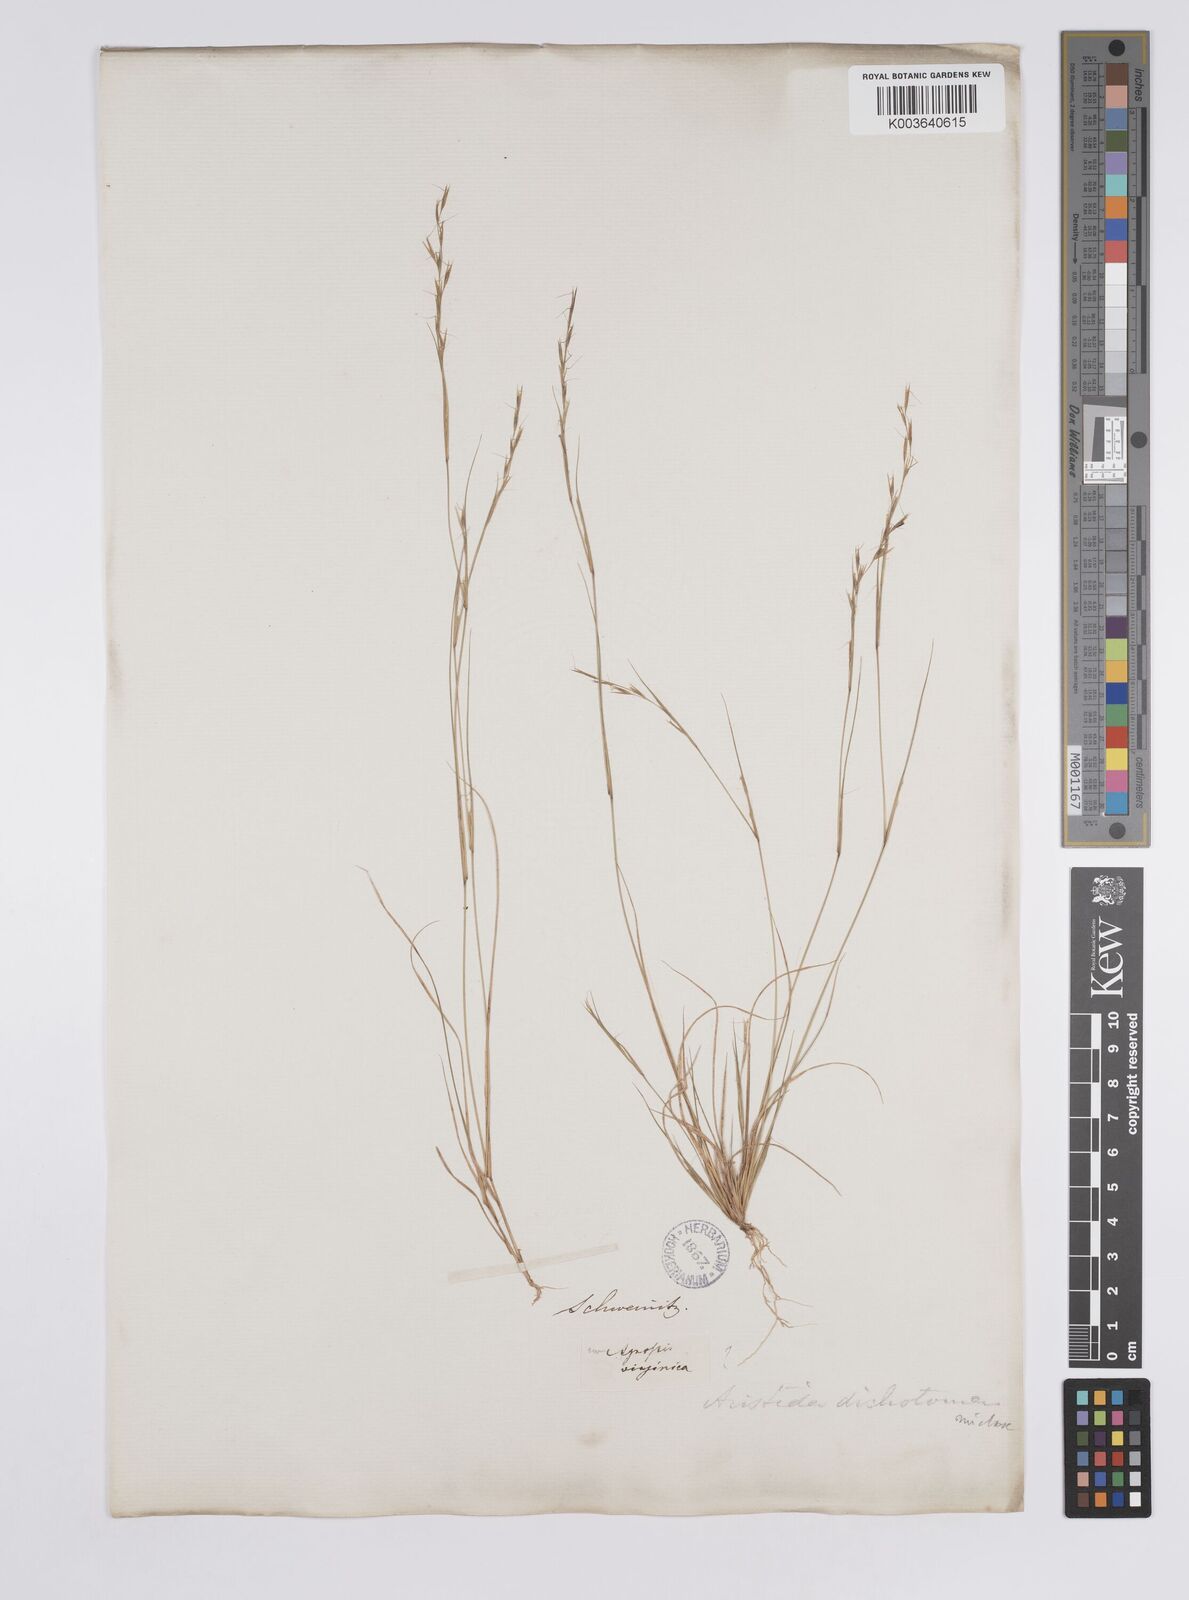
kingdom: Plantae
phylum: Tracheophyta
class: Liliopsida
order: Poales
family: Poaceae
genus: Aristida
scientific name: Aristida dichotoma
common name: Churchmouse three-awn
